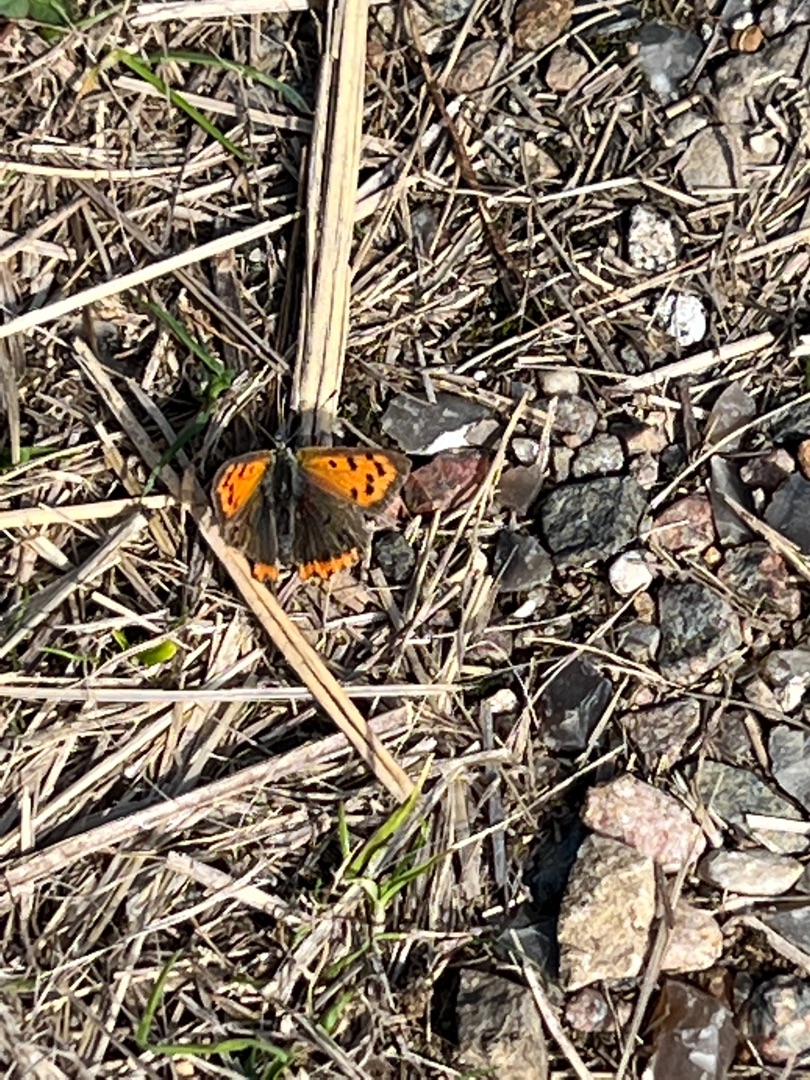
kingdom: Animalia
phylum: Arthropoda
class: Insecta
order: Lepidoptera
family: Lycaenidae
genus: Lycaena
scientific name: Lycaena phlaeas
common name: Lille ildfugl
